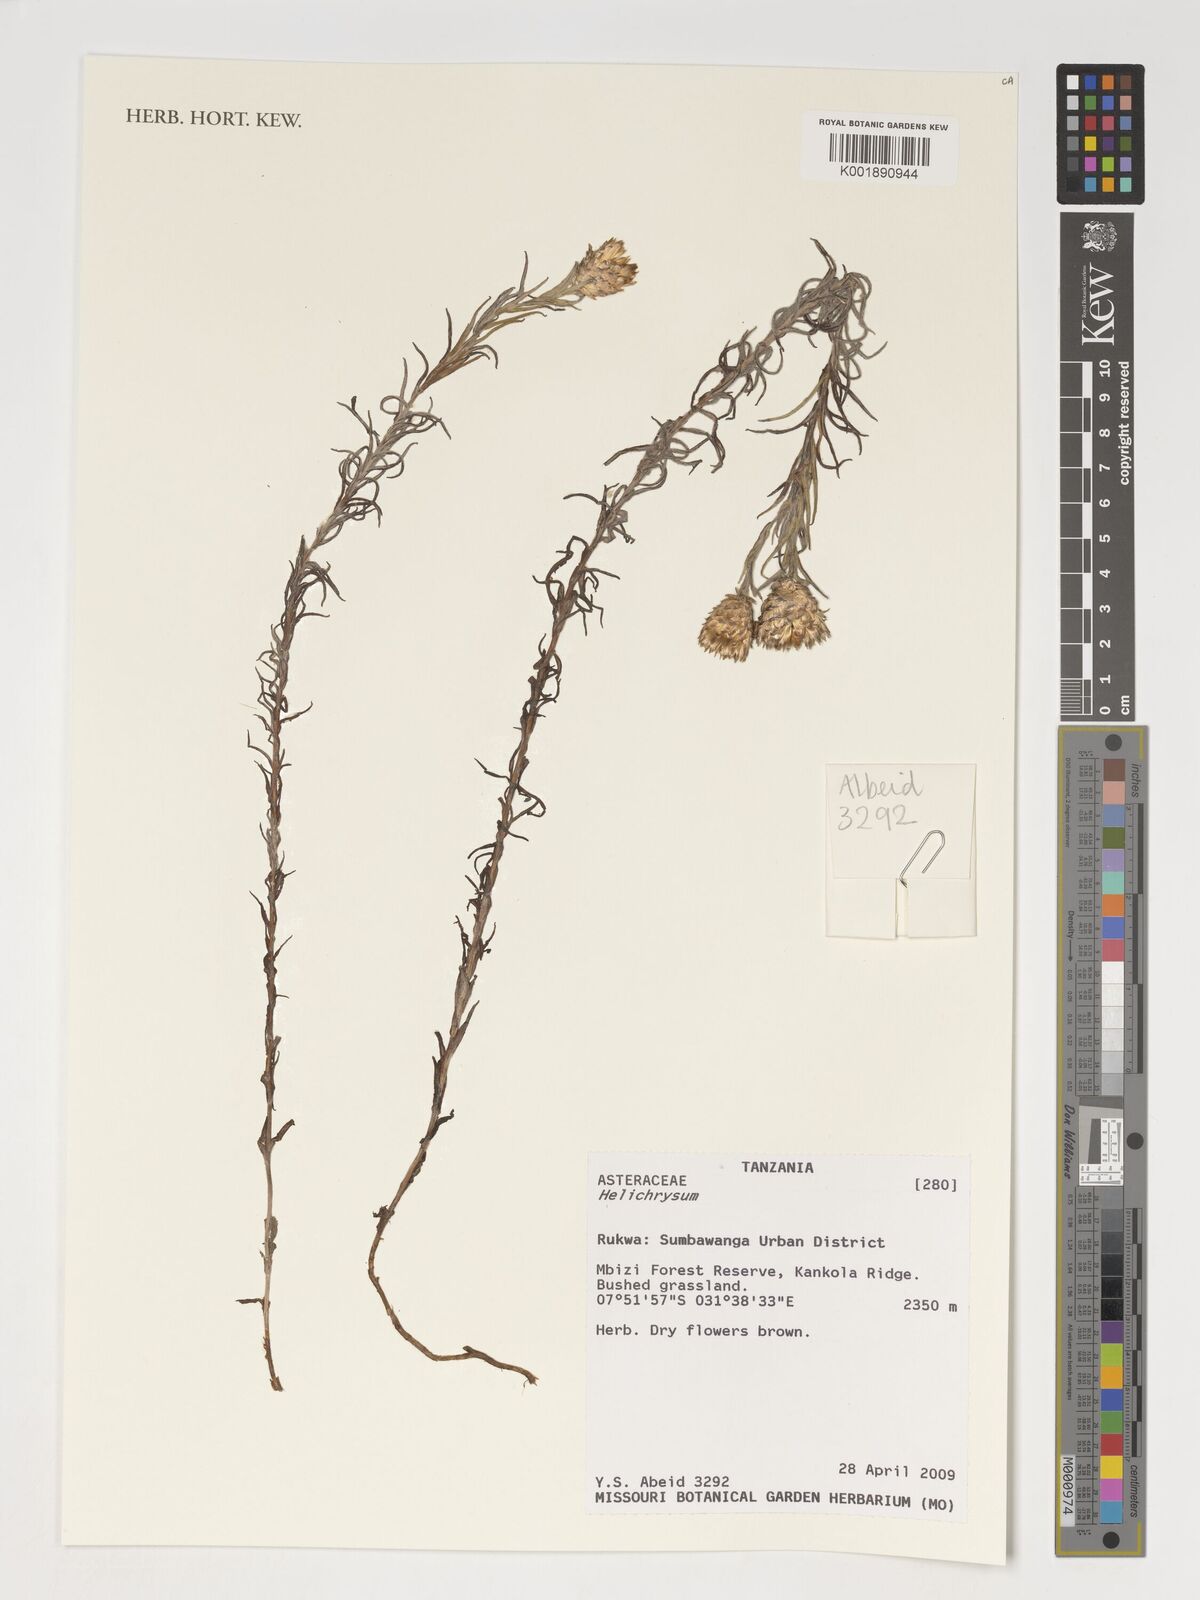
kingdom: Plantae
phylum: Tracheophyta
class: Magnoliopsida
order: Asterales
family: Asteraceae
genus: Helichrysum
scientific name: Helichrysum
